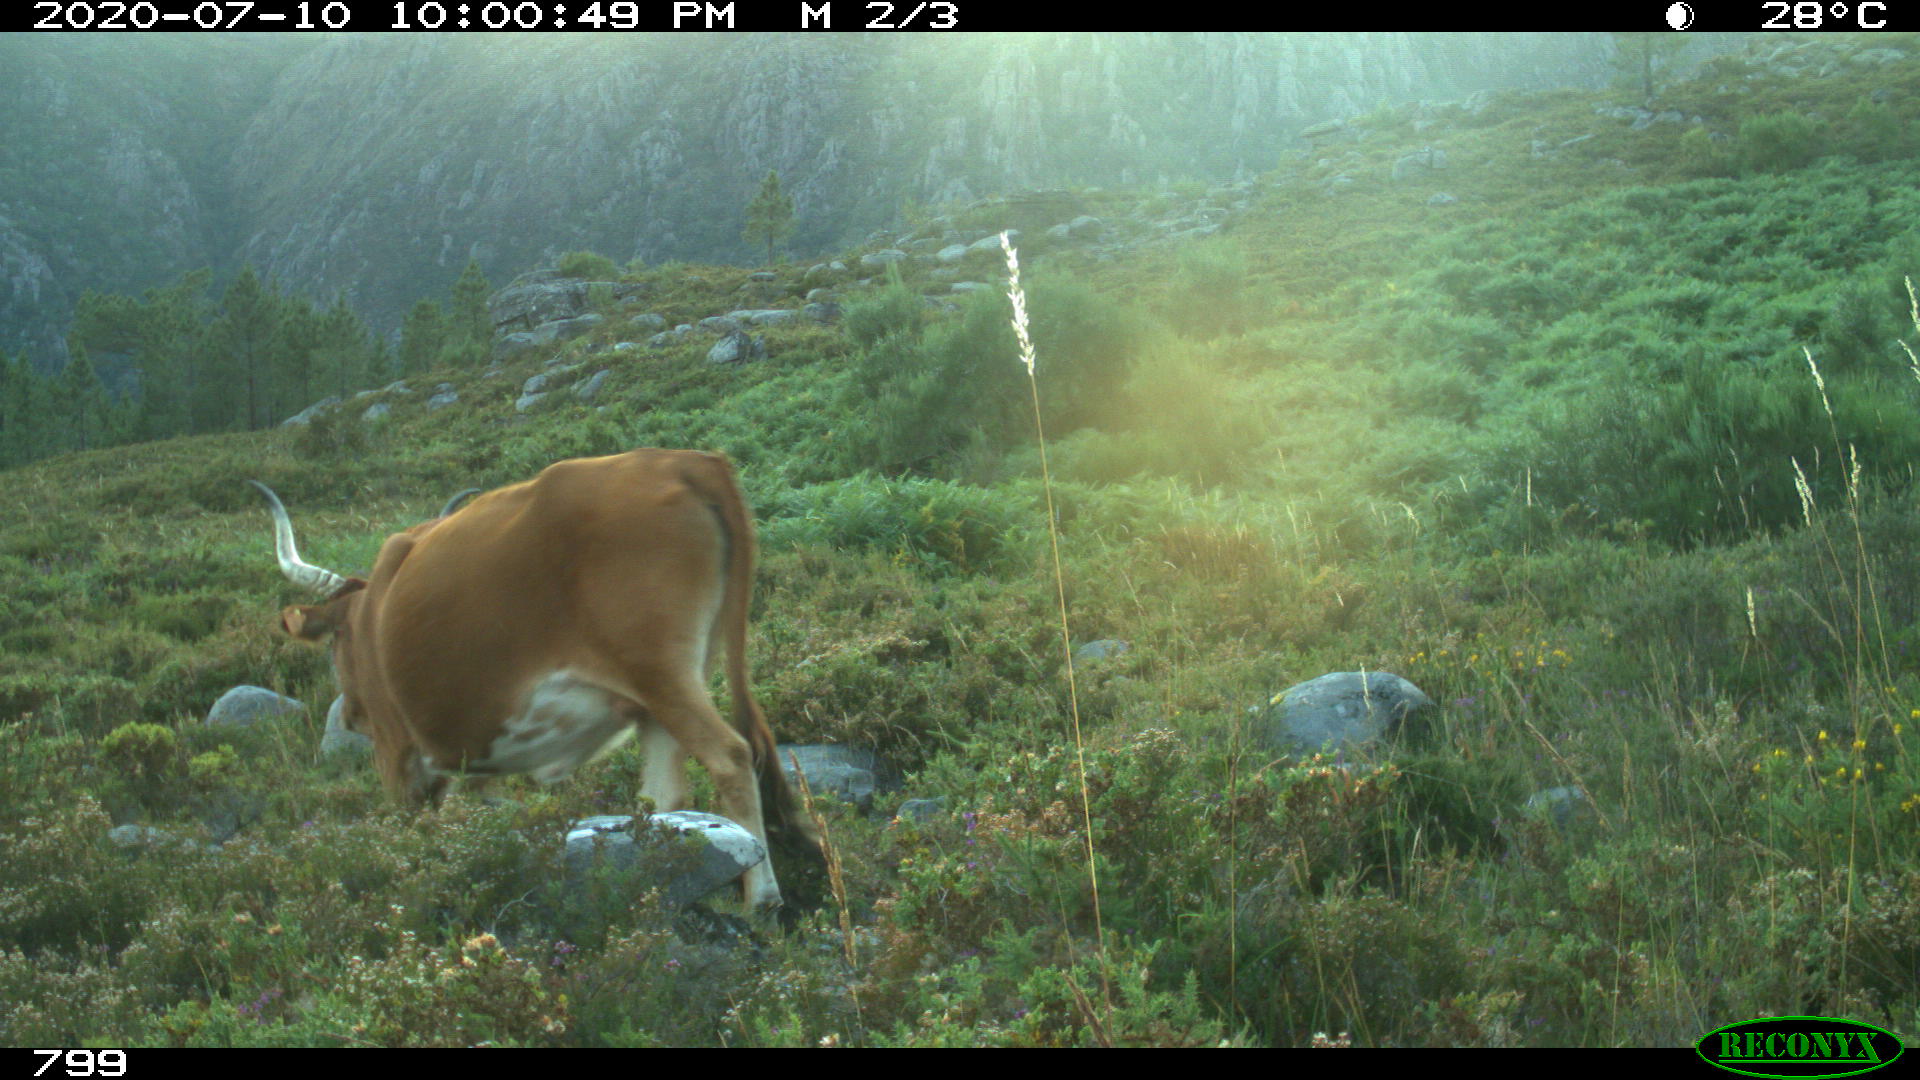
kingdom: Animalia
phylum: Chordata
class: Mammalia
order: Artiodactyla
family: Bovidae
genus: Bos
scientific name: Bos taurus
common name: Domesticated cattle
